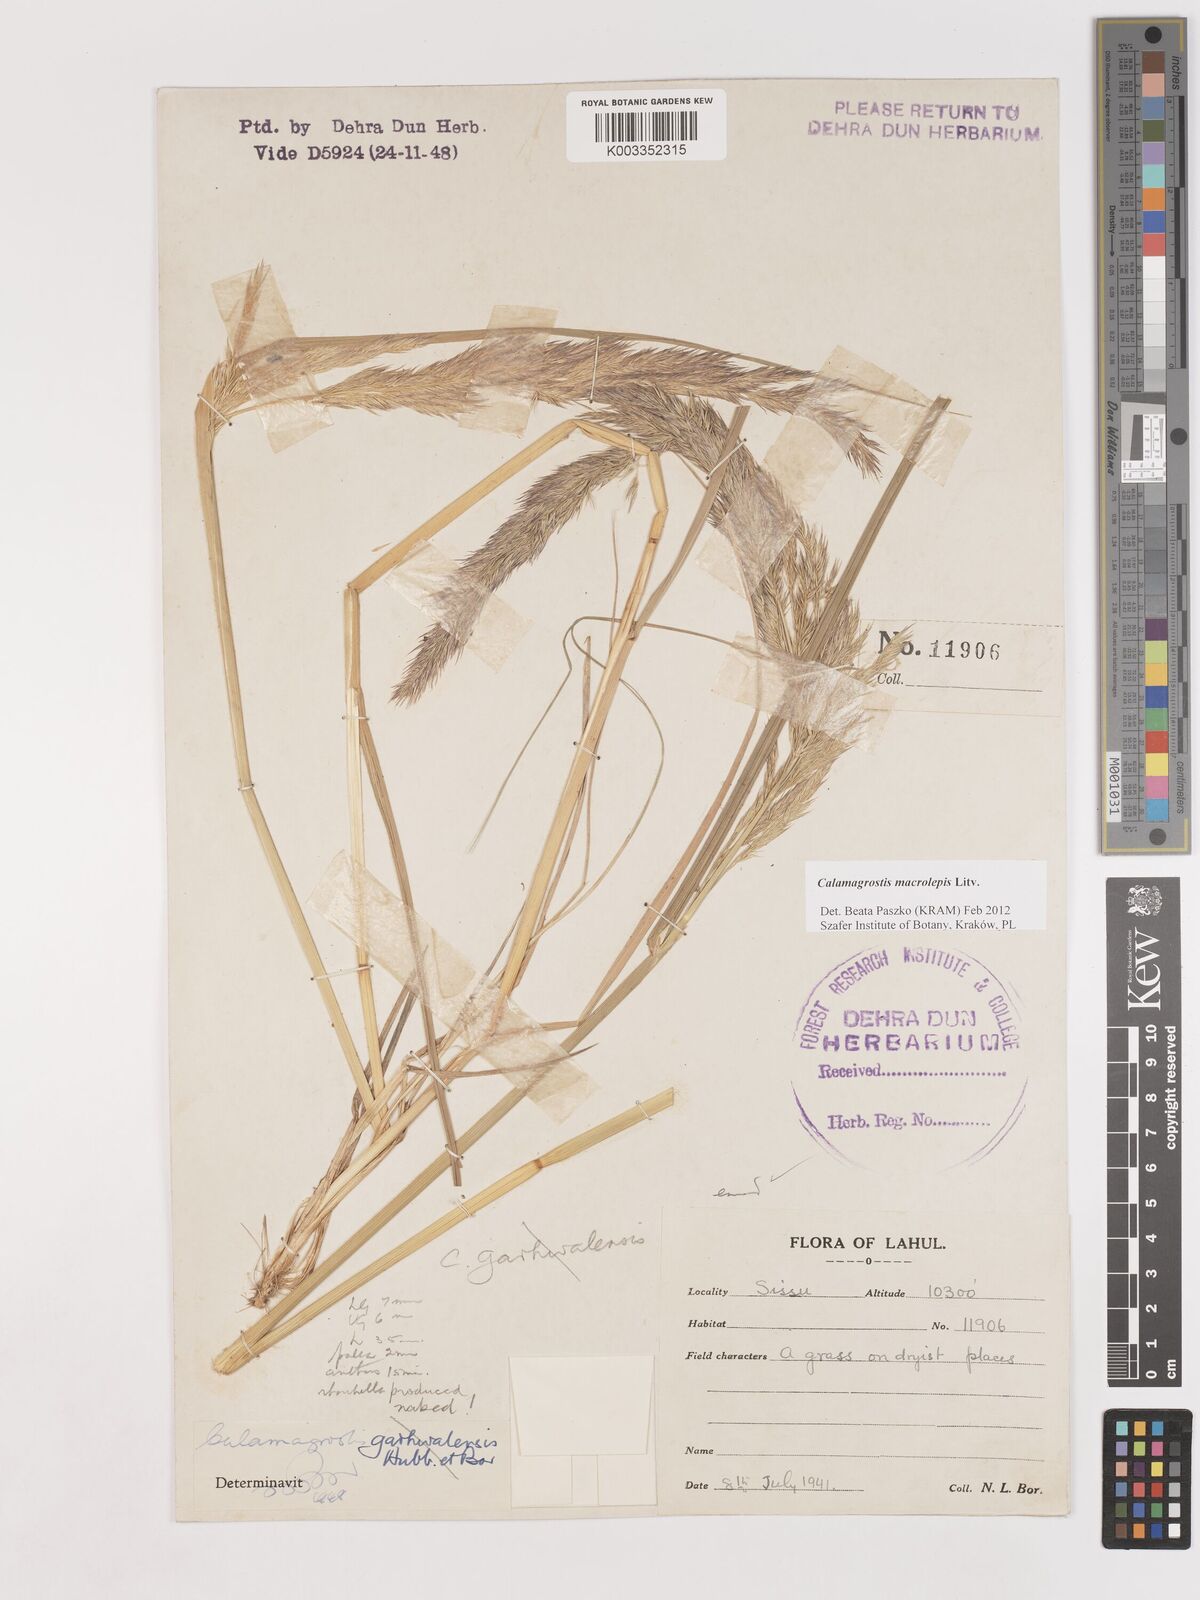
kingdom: Plantae
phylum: Tracheophyta
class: Liliopsida
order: Poales
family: Poaceae
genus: Calamagrostis
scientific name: Calamagrostis epigejos
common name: Wood small-reed
